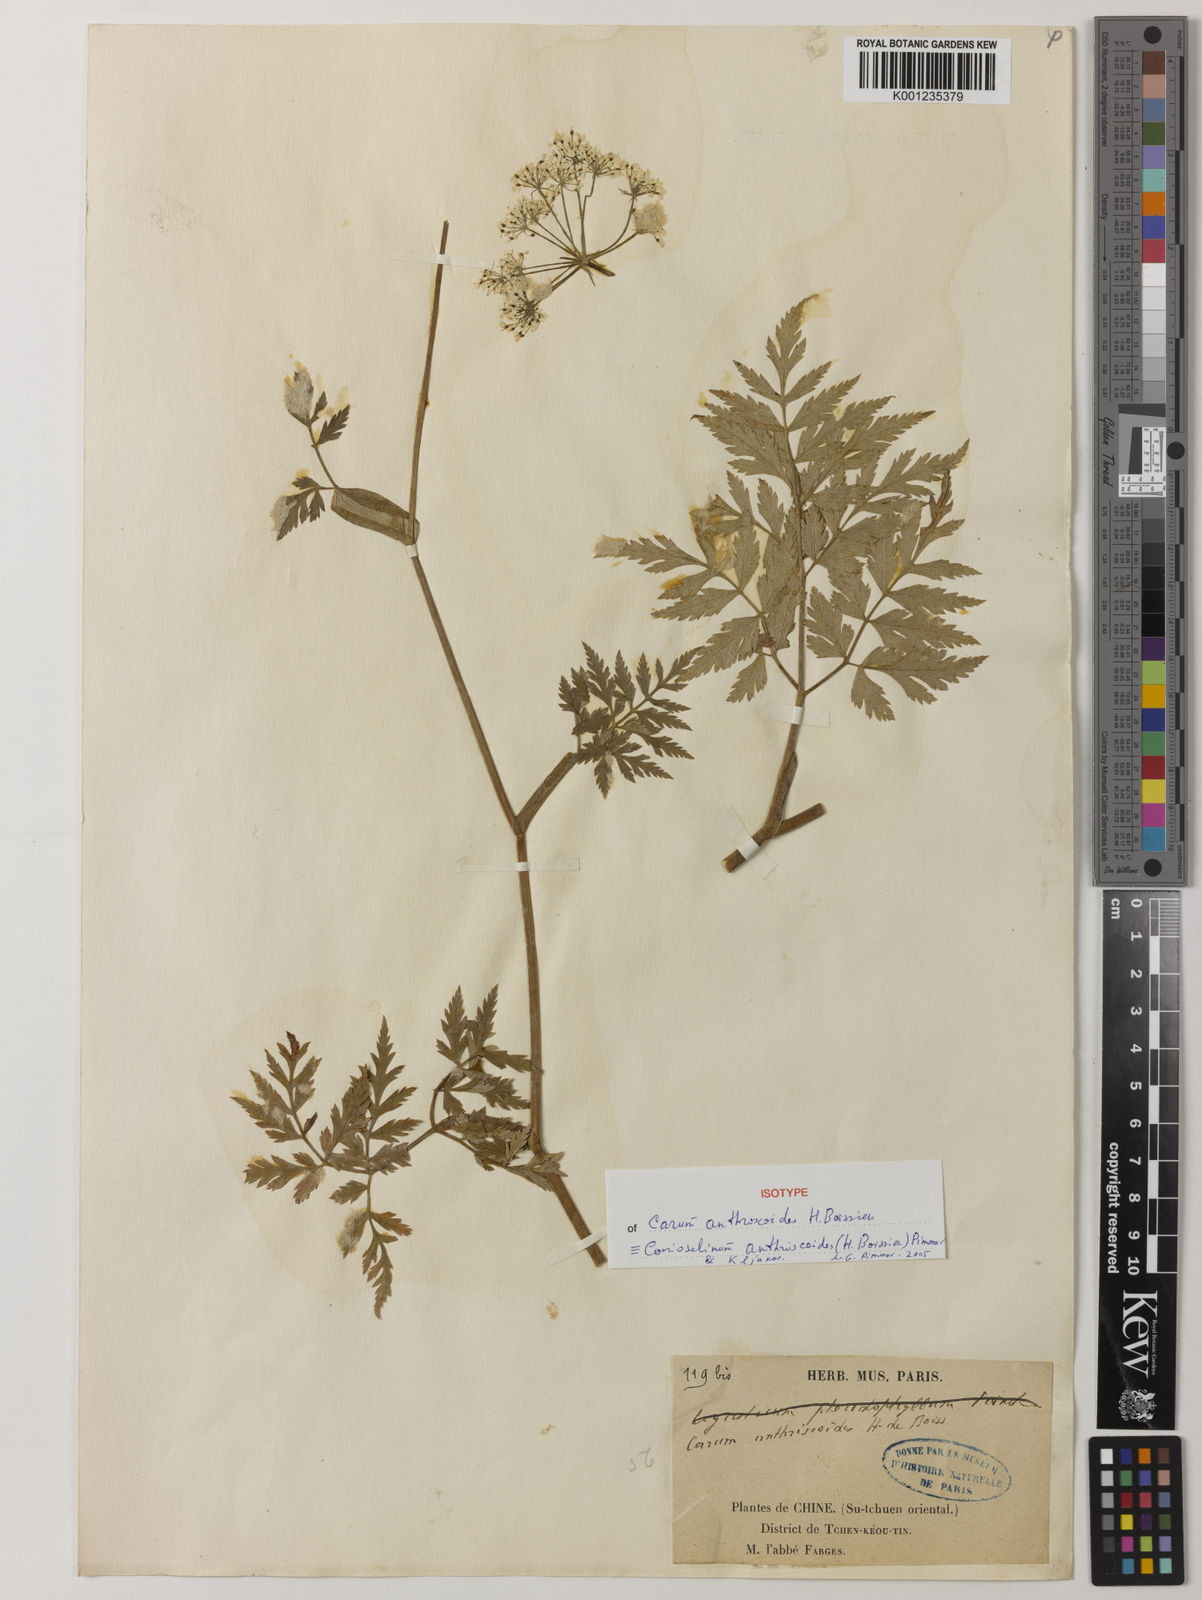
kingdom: Plantae
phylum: Tracheophyta
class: Magnoliopsida
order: Apiales
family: Apiaceae
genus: Conioselinum
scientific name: Conioselinum anthriscoides
